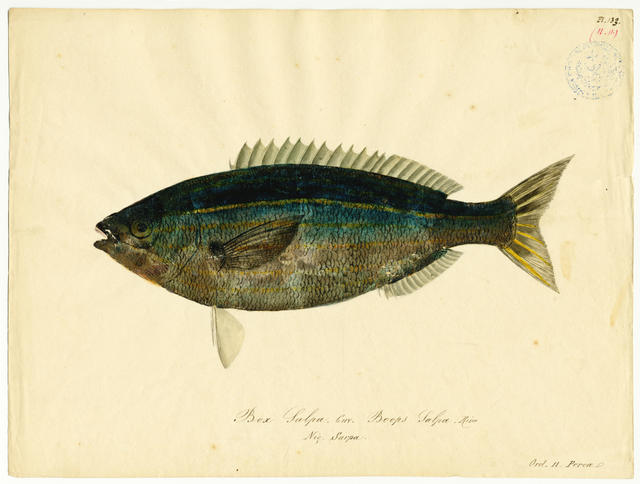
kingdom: Animalia
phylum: Chordata
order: Perciformes
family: Sparidae
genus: Sarpa
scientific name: Sarpa salpa
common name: Salema
